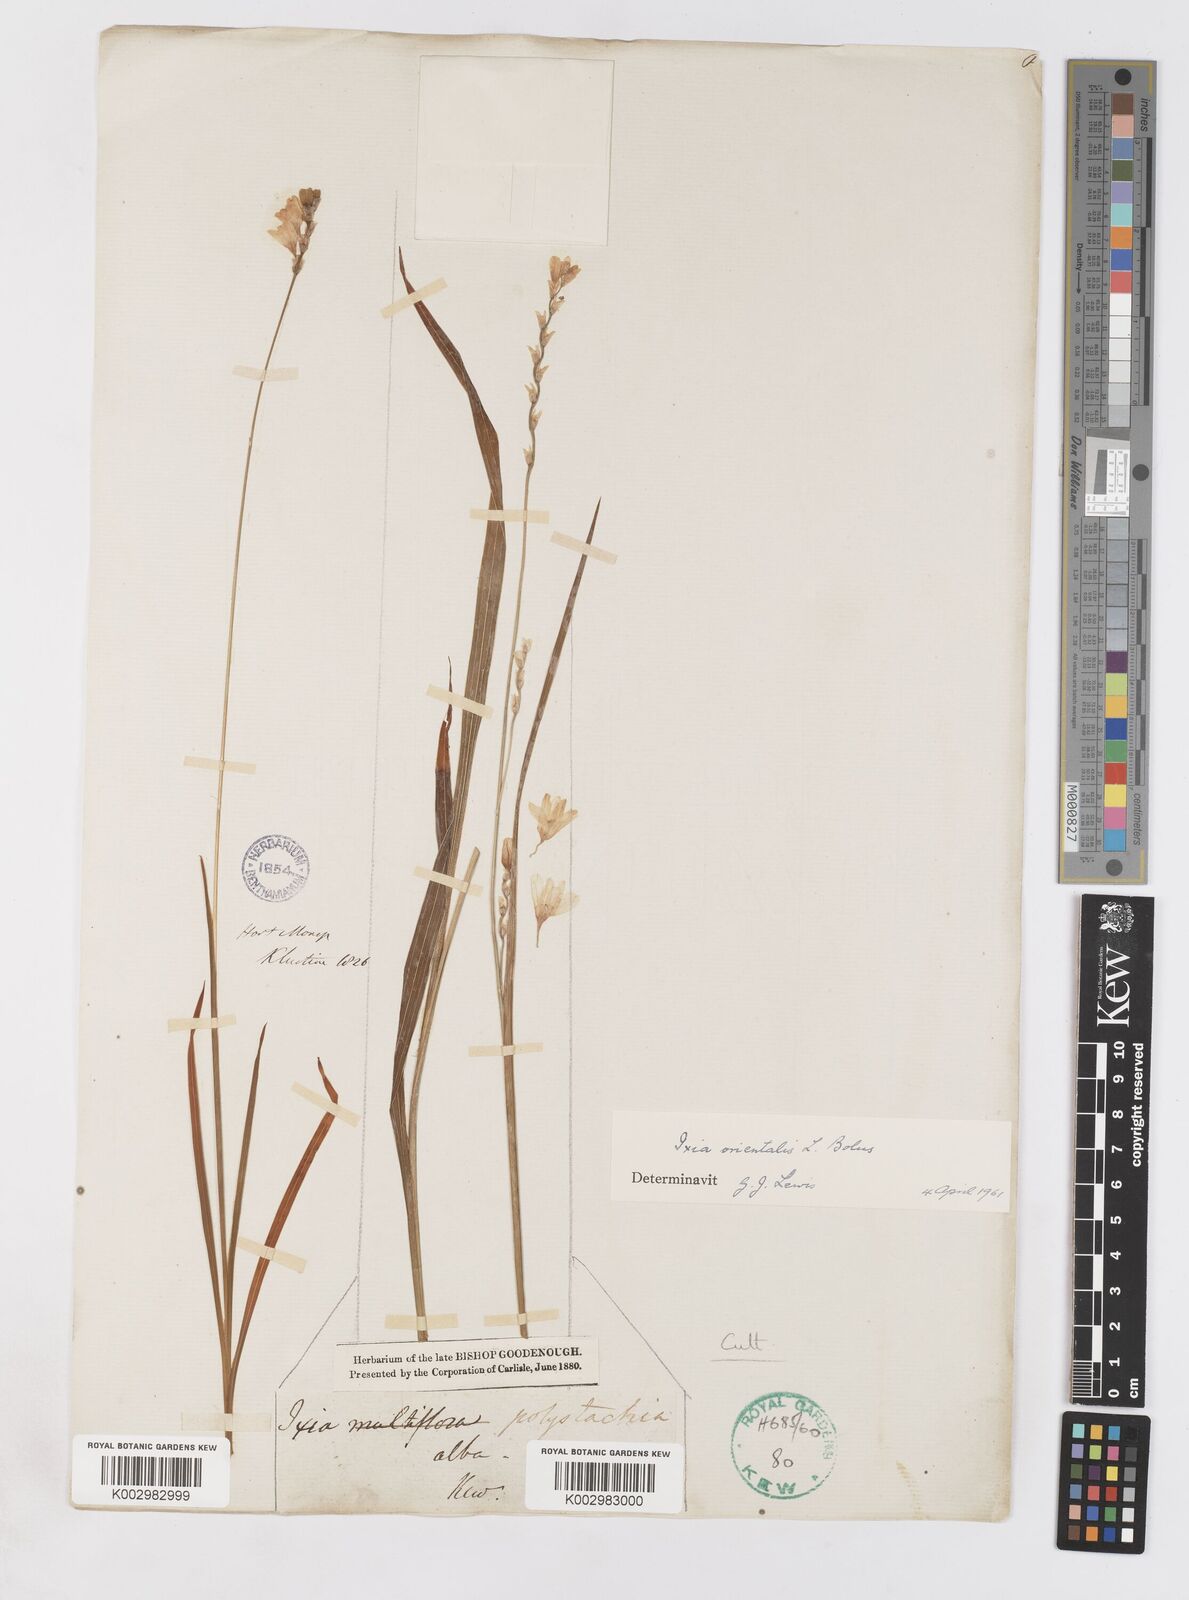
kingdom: Plantae
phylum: Tracheophyta
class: Liliopsida
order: Asparagales
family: Iridaceae
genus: Ixia
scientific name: Ixia orientalis
